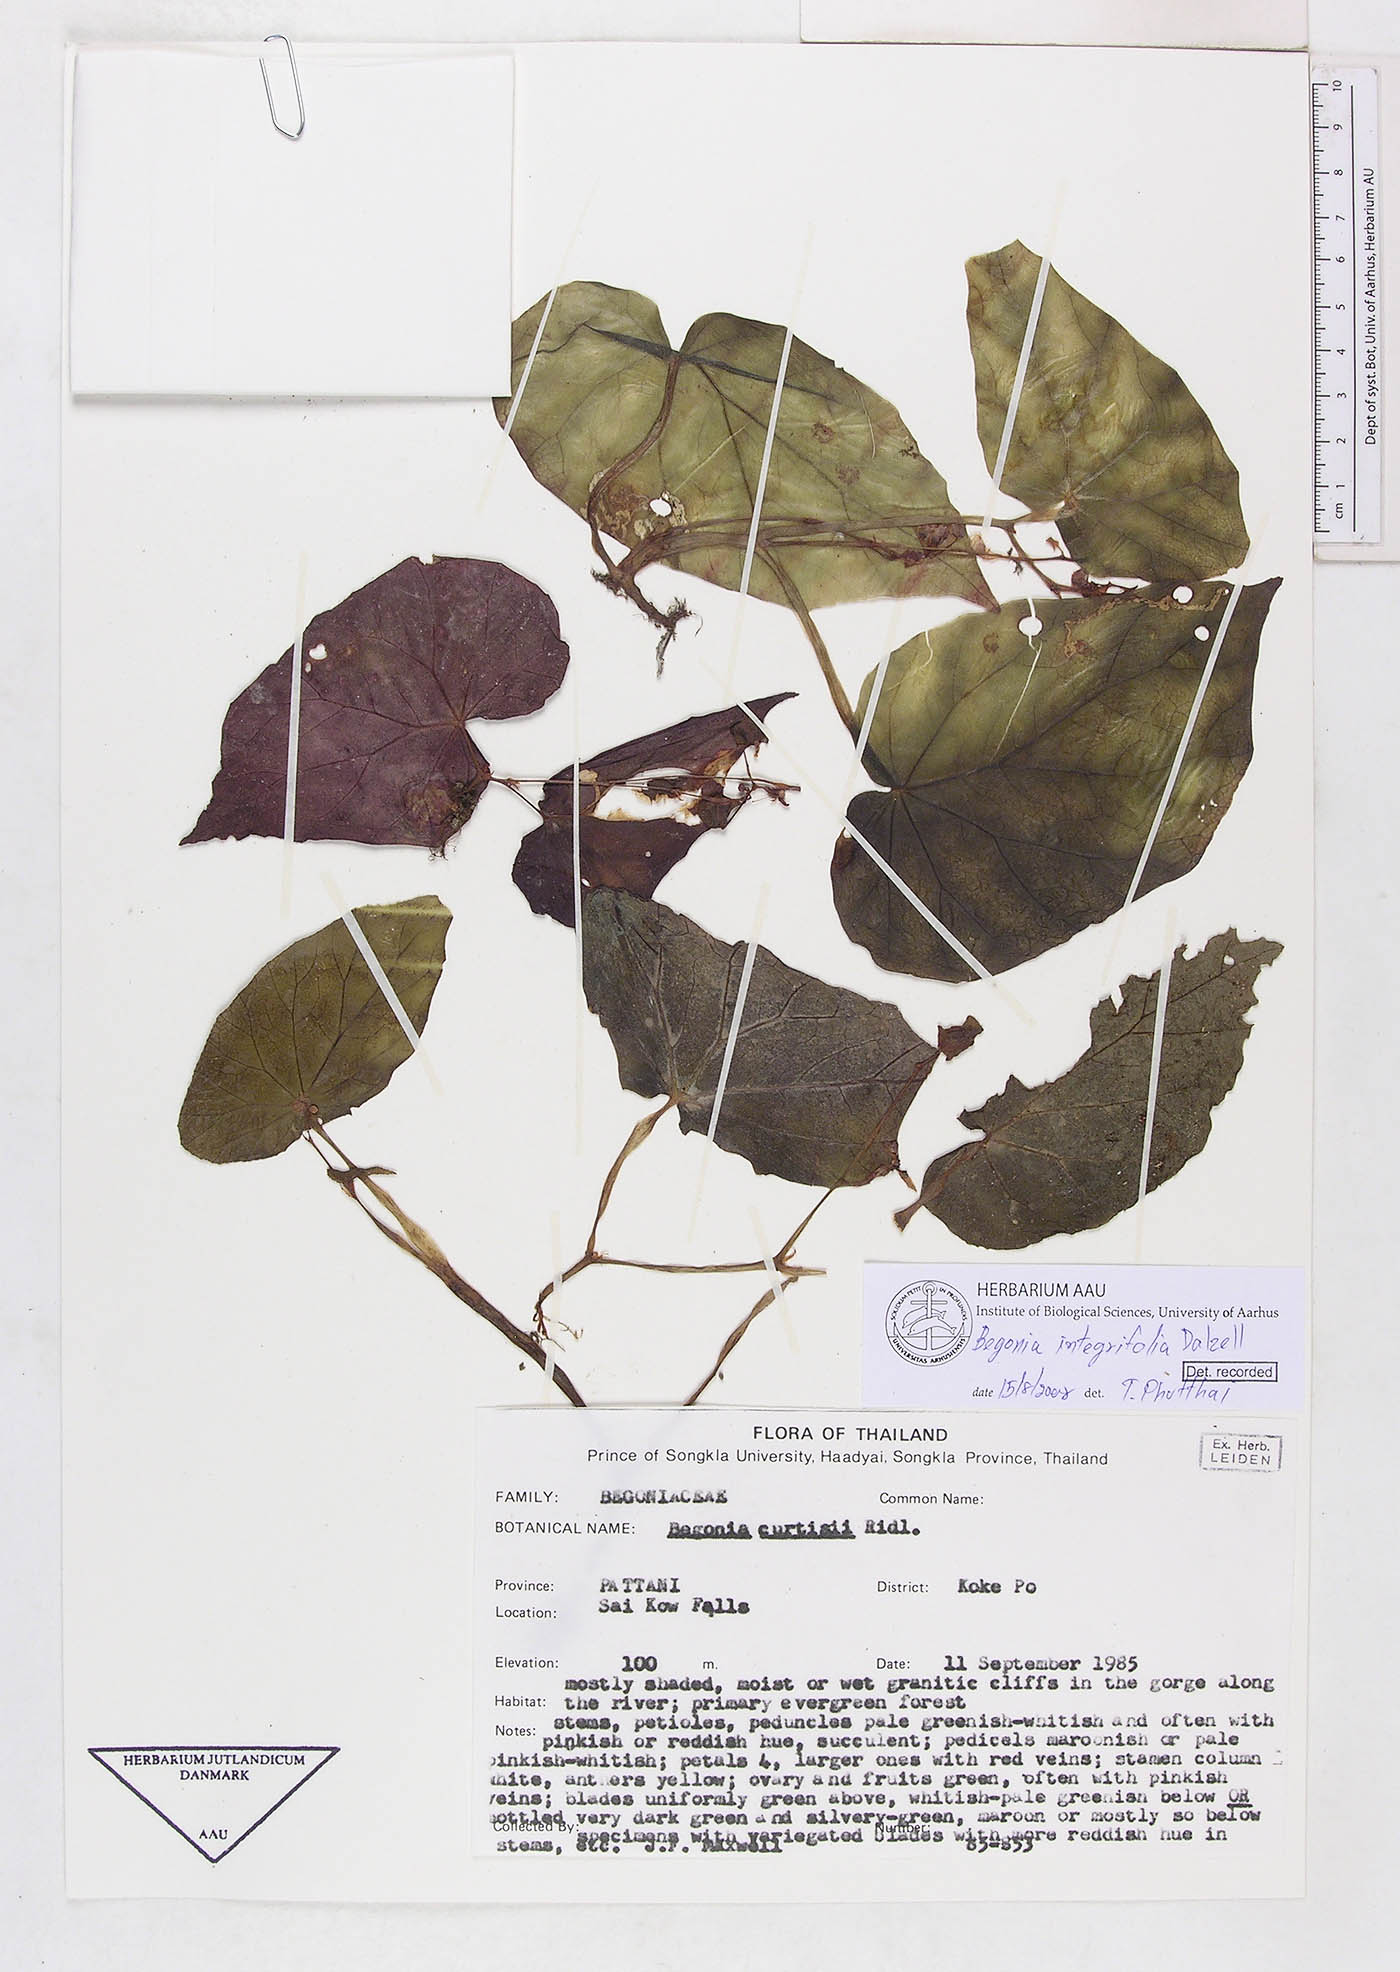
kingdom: Plantae
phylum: Tracheophyta
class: Magnoliopsida
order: Cucurbitales
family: Begoniaceae
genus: Begonia
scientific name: Begonia variabilis
